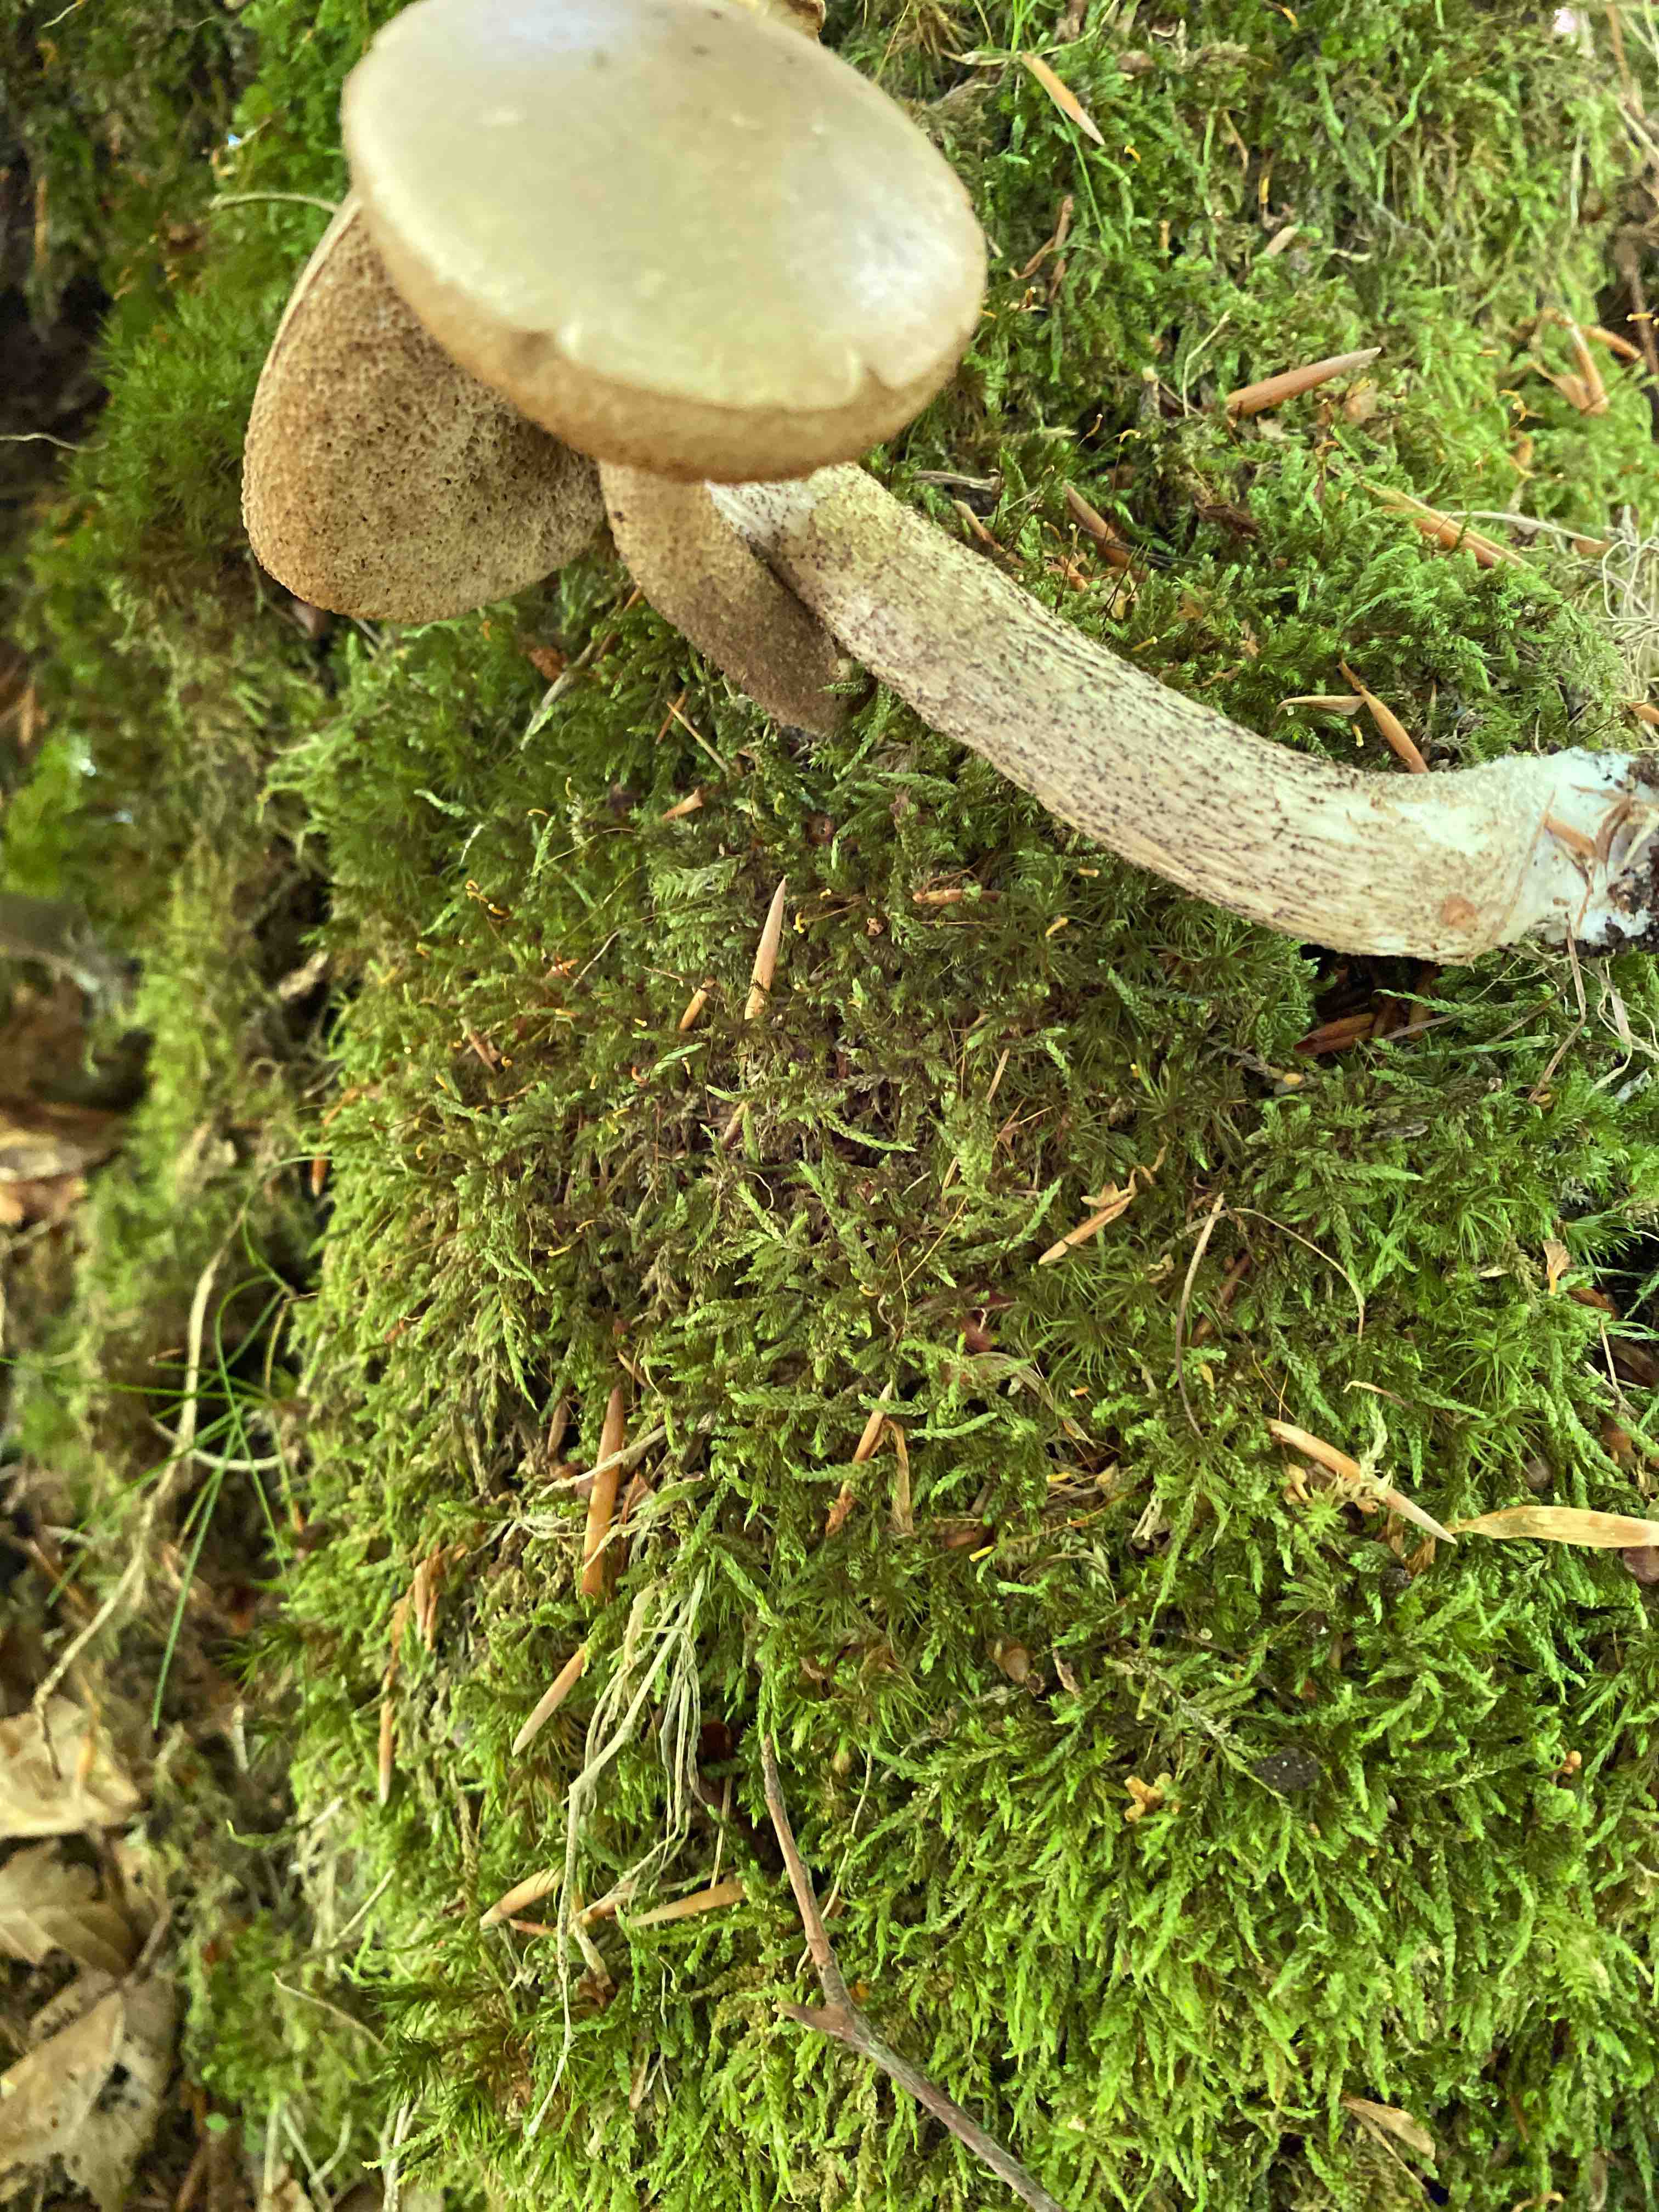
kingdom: Fungi
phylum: Basidiomycota
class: Agaricomycetes
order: Boletales
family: Boletaceae
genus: Leccinum
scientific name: Leccinum scabrum
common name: brun skælrørhat
